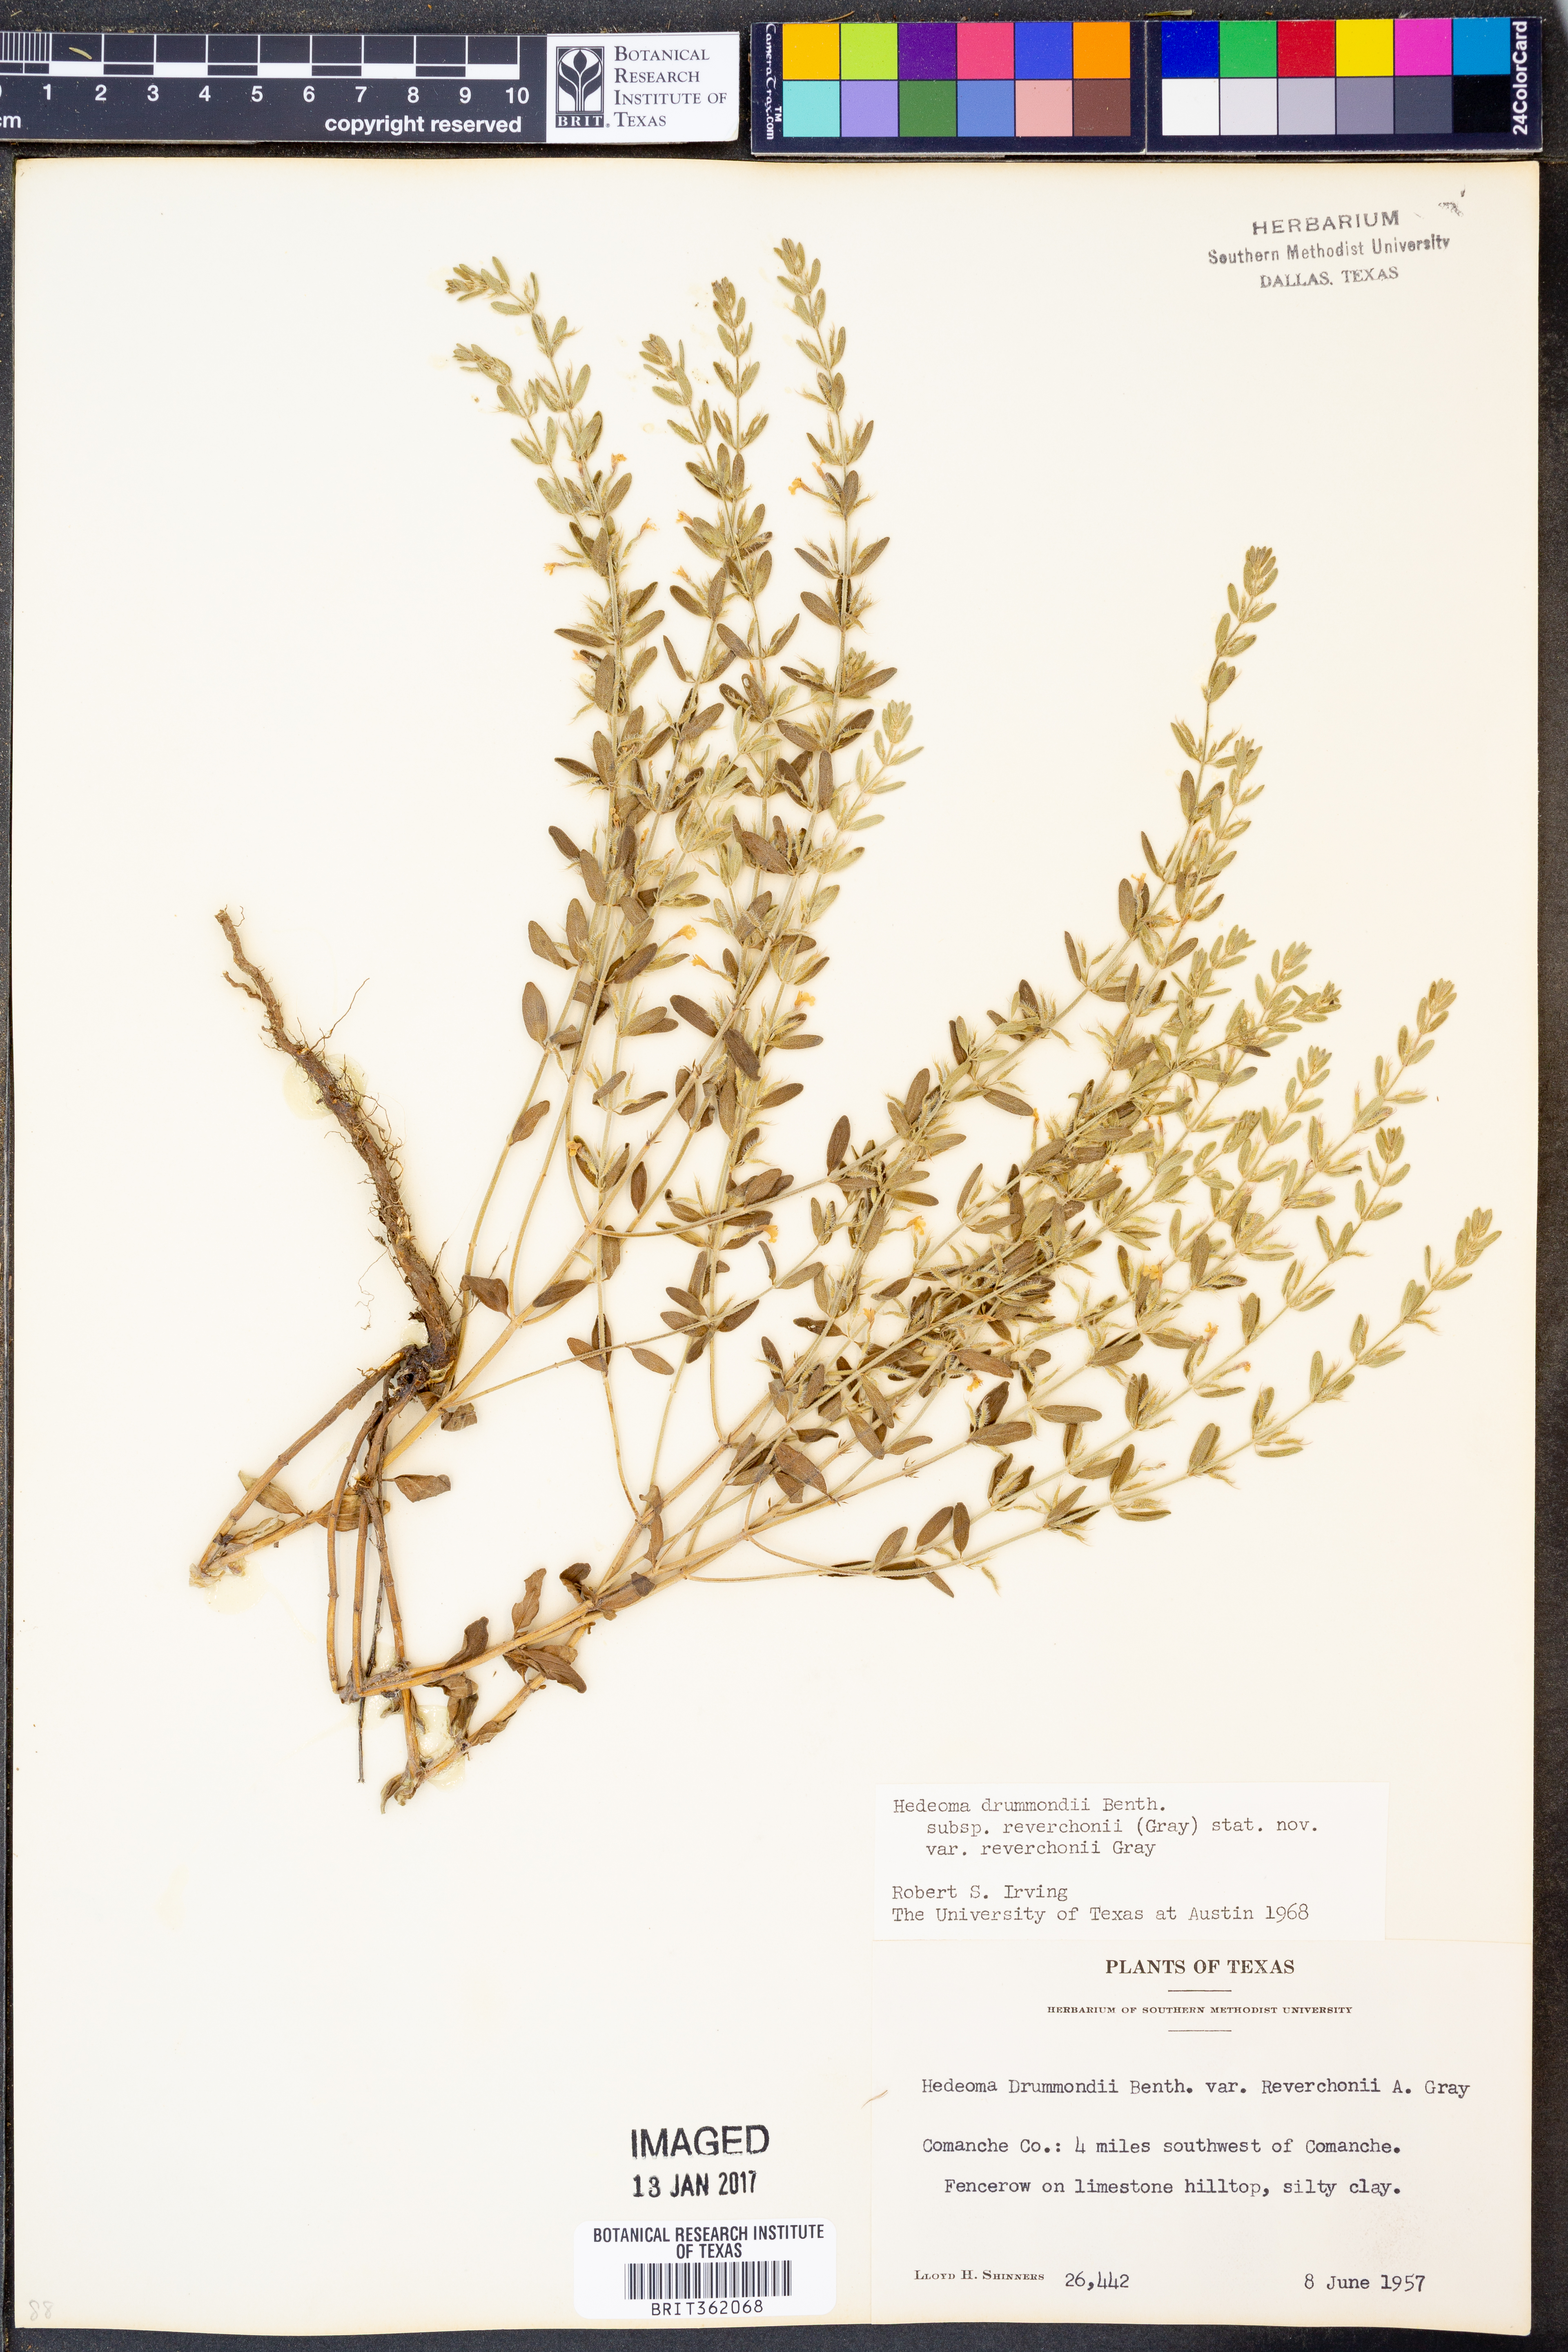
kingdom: Plantae
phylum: Tracheophyta
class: Magnoliopsida
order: Lamiales
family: Lamiaceae
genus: Hedeoma
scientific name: Hedeoma reverchonii
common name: Reverchon's false penny-royal
